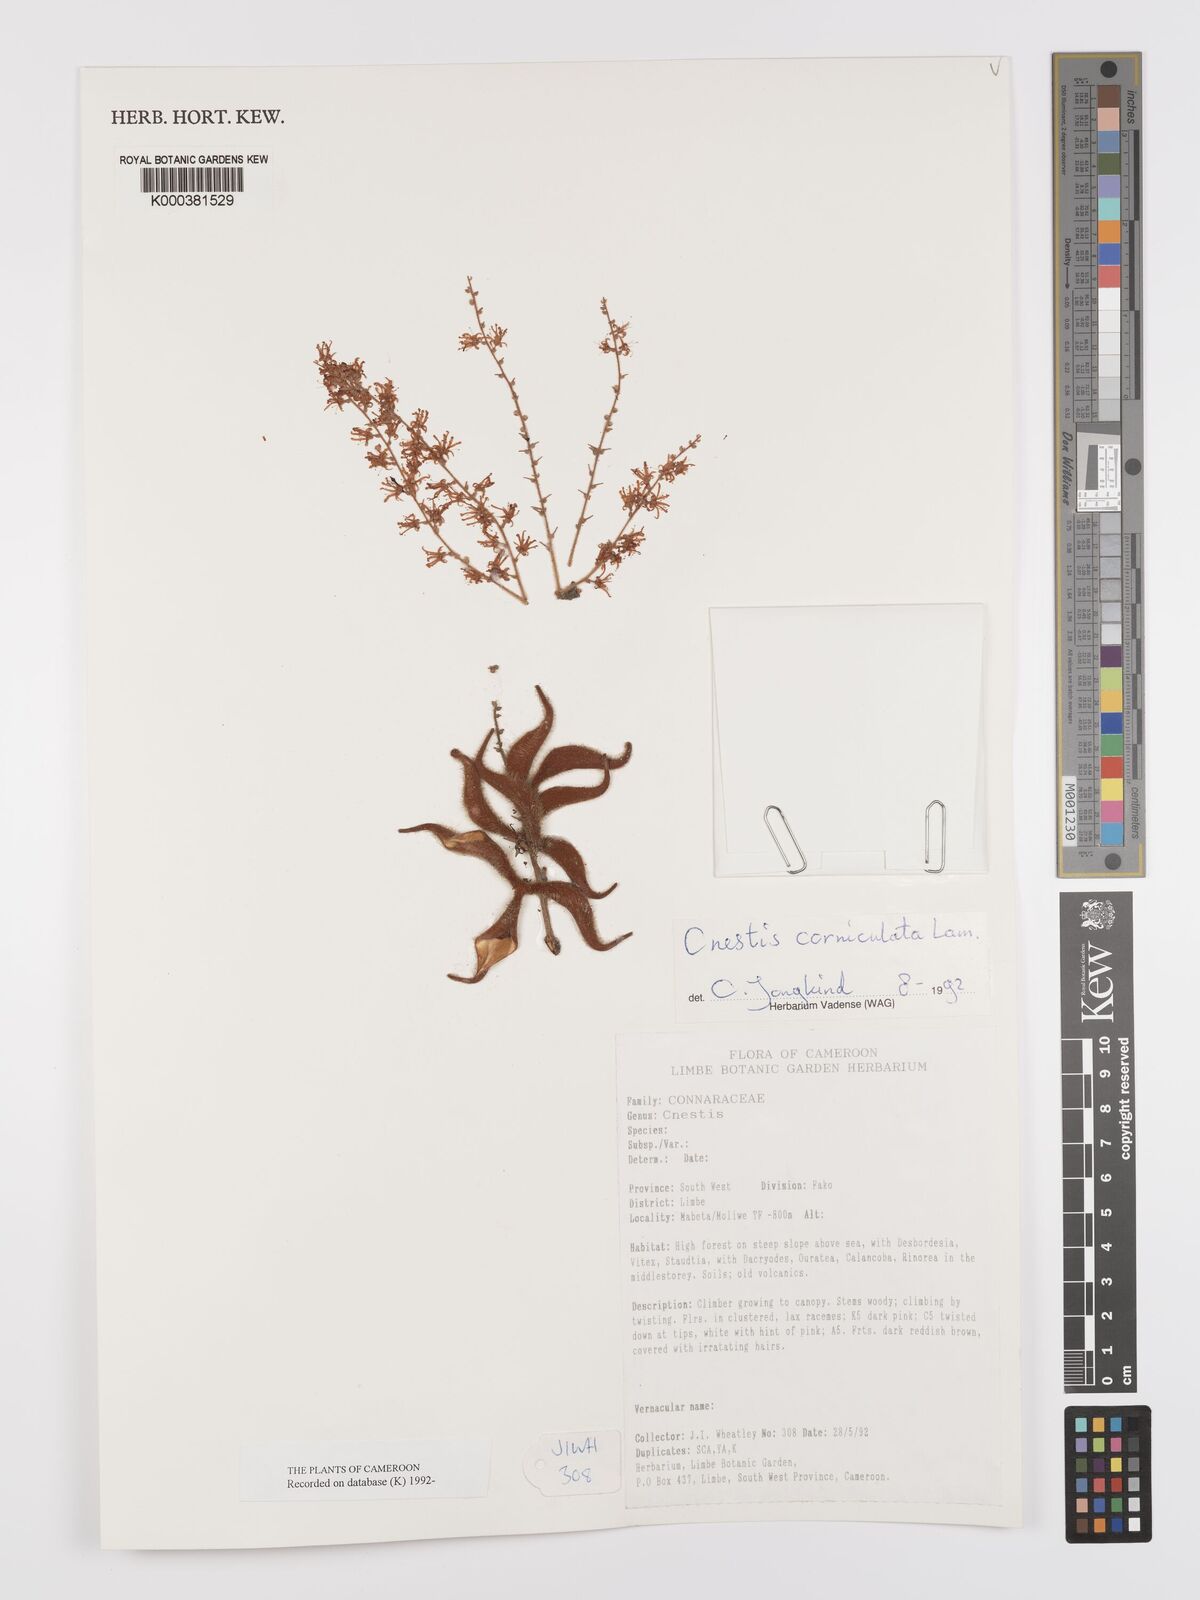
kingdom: Plantae
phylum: Tracheophyta
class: Magnoliopsida
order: Oxalidales
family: Connaraceae
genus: Cnestis
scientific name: Cnestis corniculata
